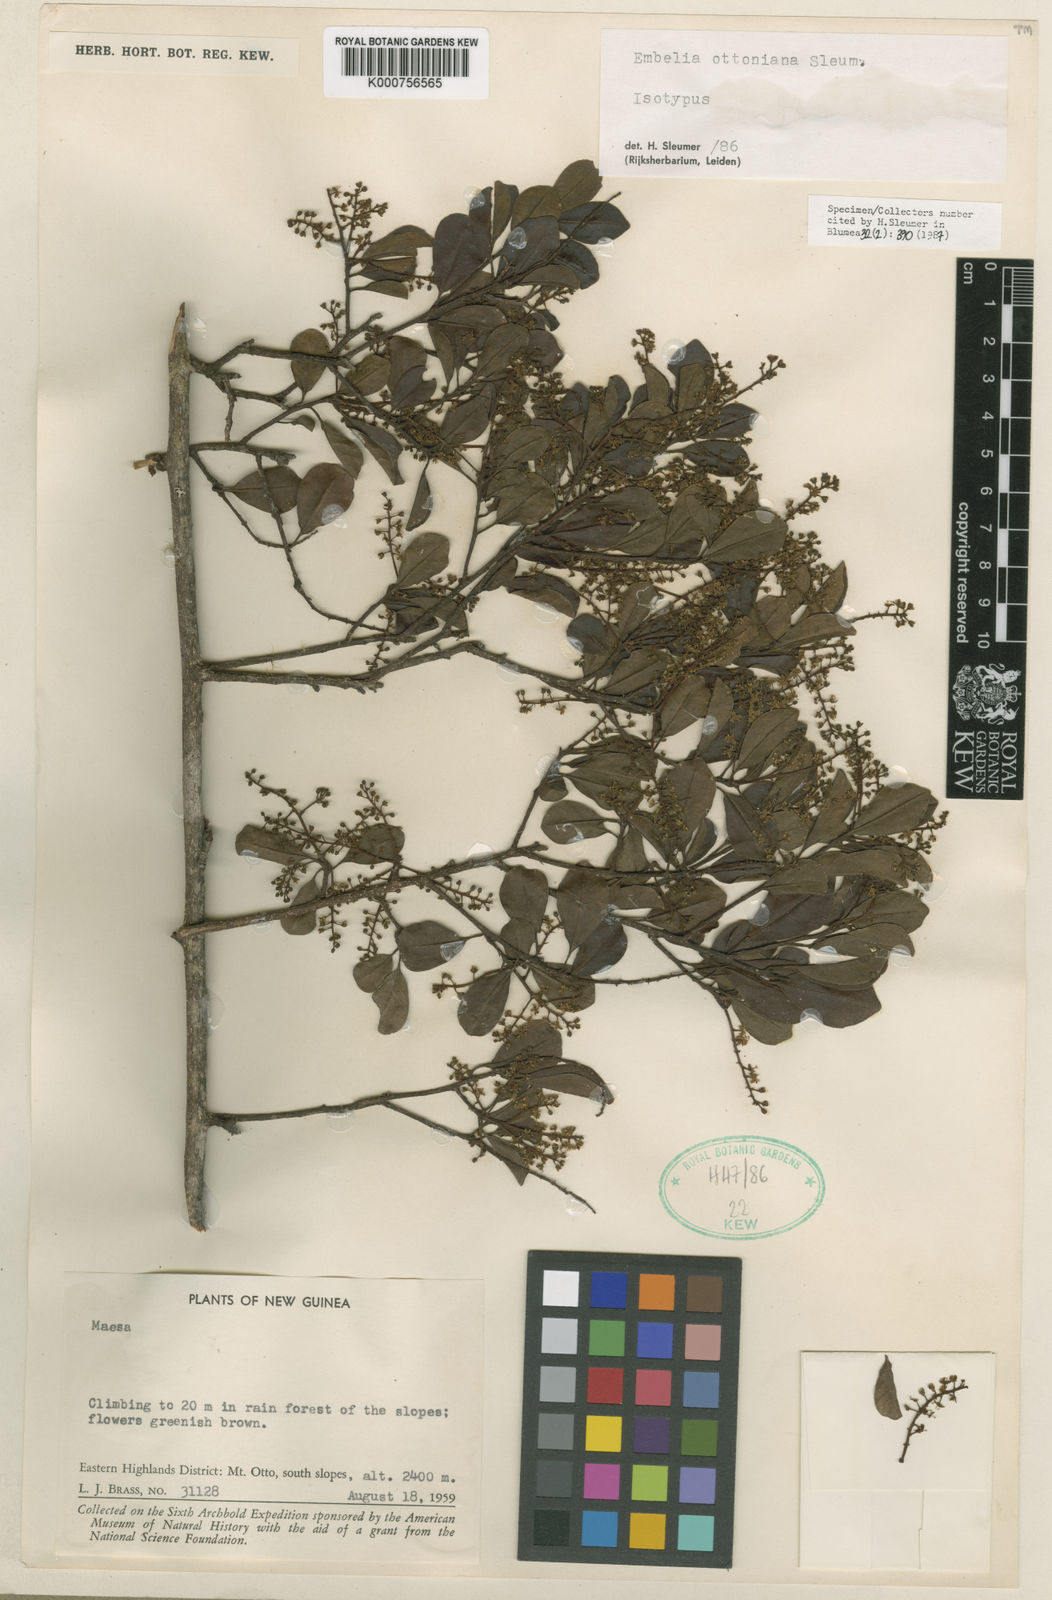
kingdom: Plantae
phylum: Tracheophyta
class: Magnoliopsida
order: Ericales
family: Primulaceae
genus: Embelia
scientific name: Embelia ottoniana
